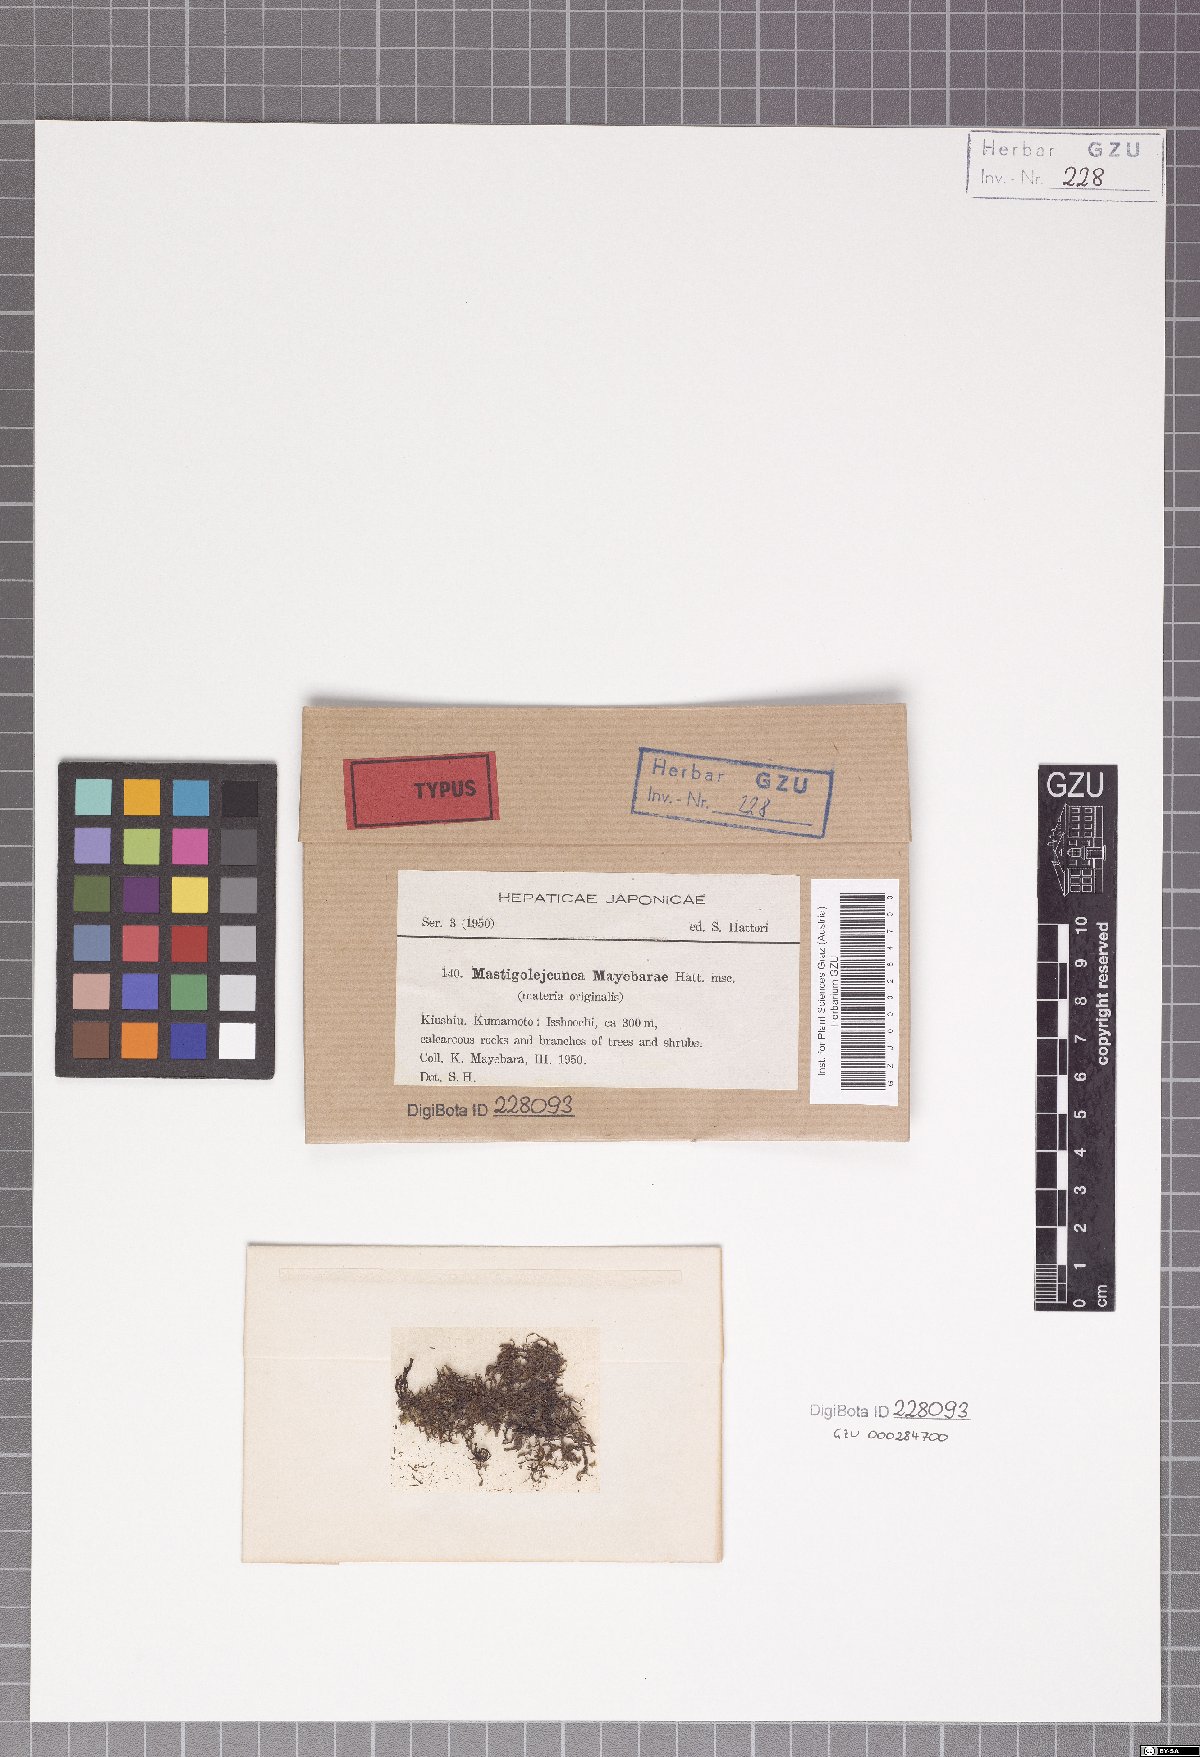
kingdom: Plantae
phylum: Marchantiophyta
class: Jungermanniopsida
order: Porellales
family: Lejeuneaceae
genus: Mastigolejeunea
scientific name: Mastigolejeunea
